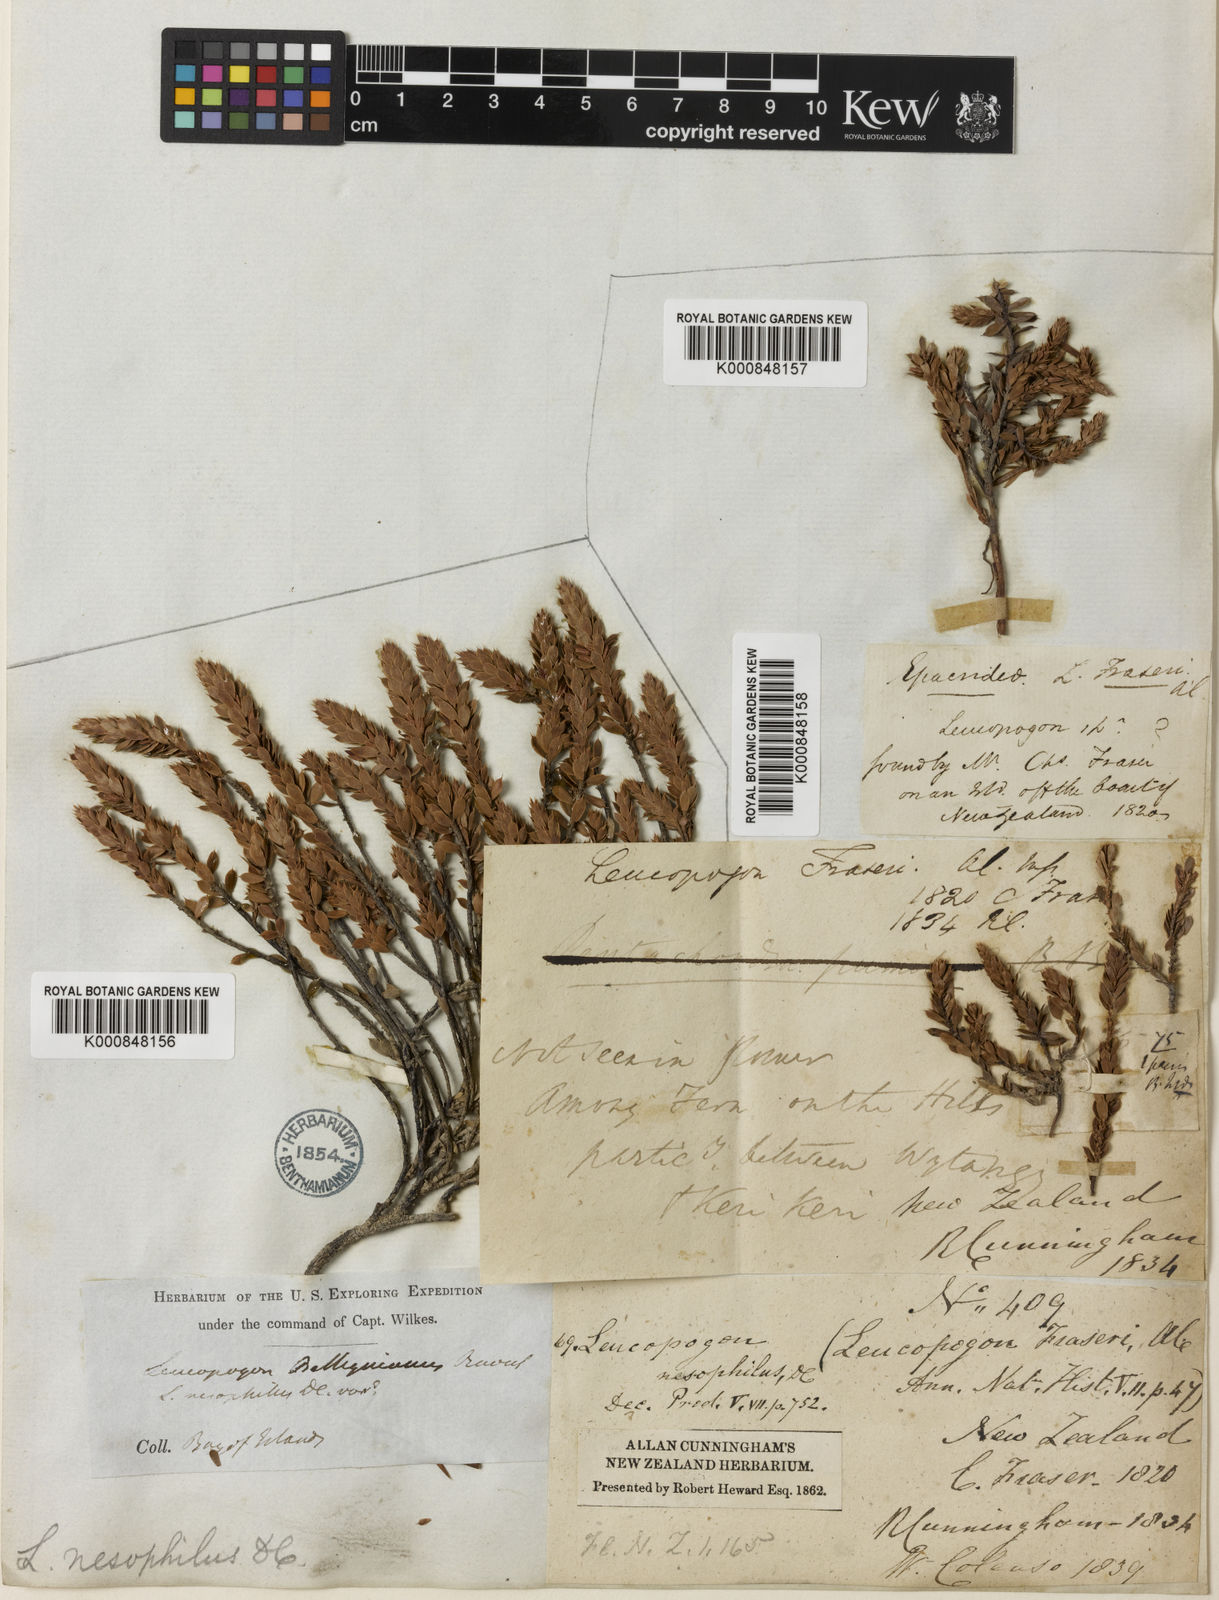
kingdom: Plantae
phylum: Tracheophyta
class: Magnoliopsida
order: Ericales
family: Ericaceae
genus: Styphelia
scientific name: Styphelia nesophila
